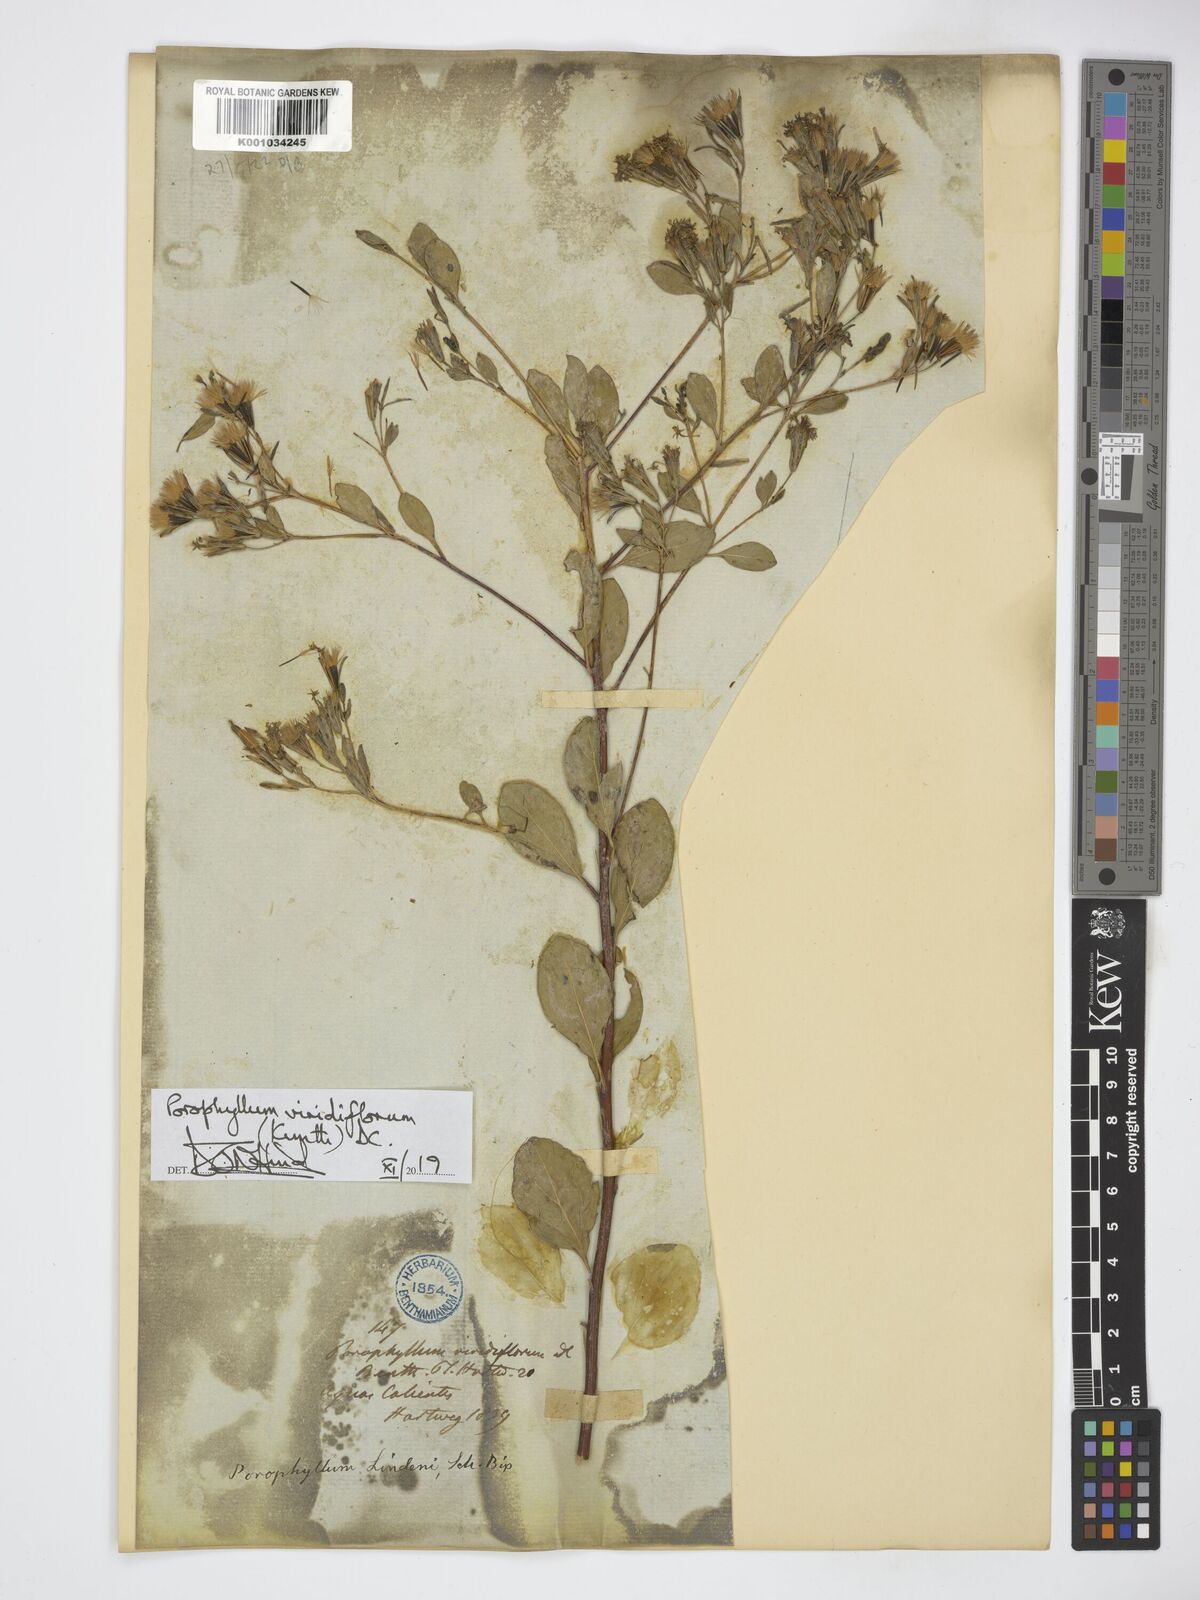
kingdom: Plantae
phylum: Tracheophyta
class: Magnoliopsida
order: Asterales
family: Asteraceae
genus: Porophyllum
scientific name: Porophyllum viridiflorum
